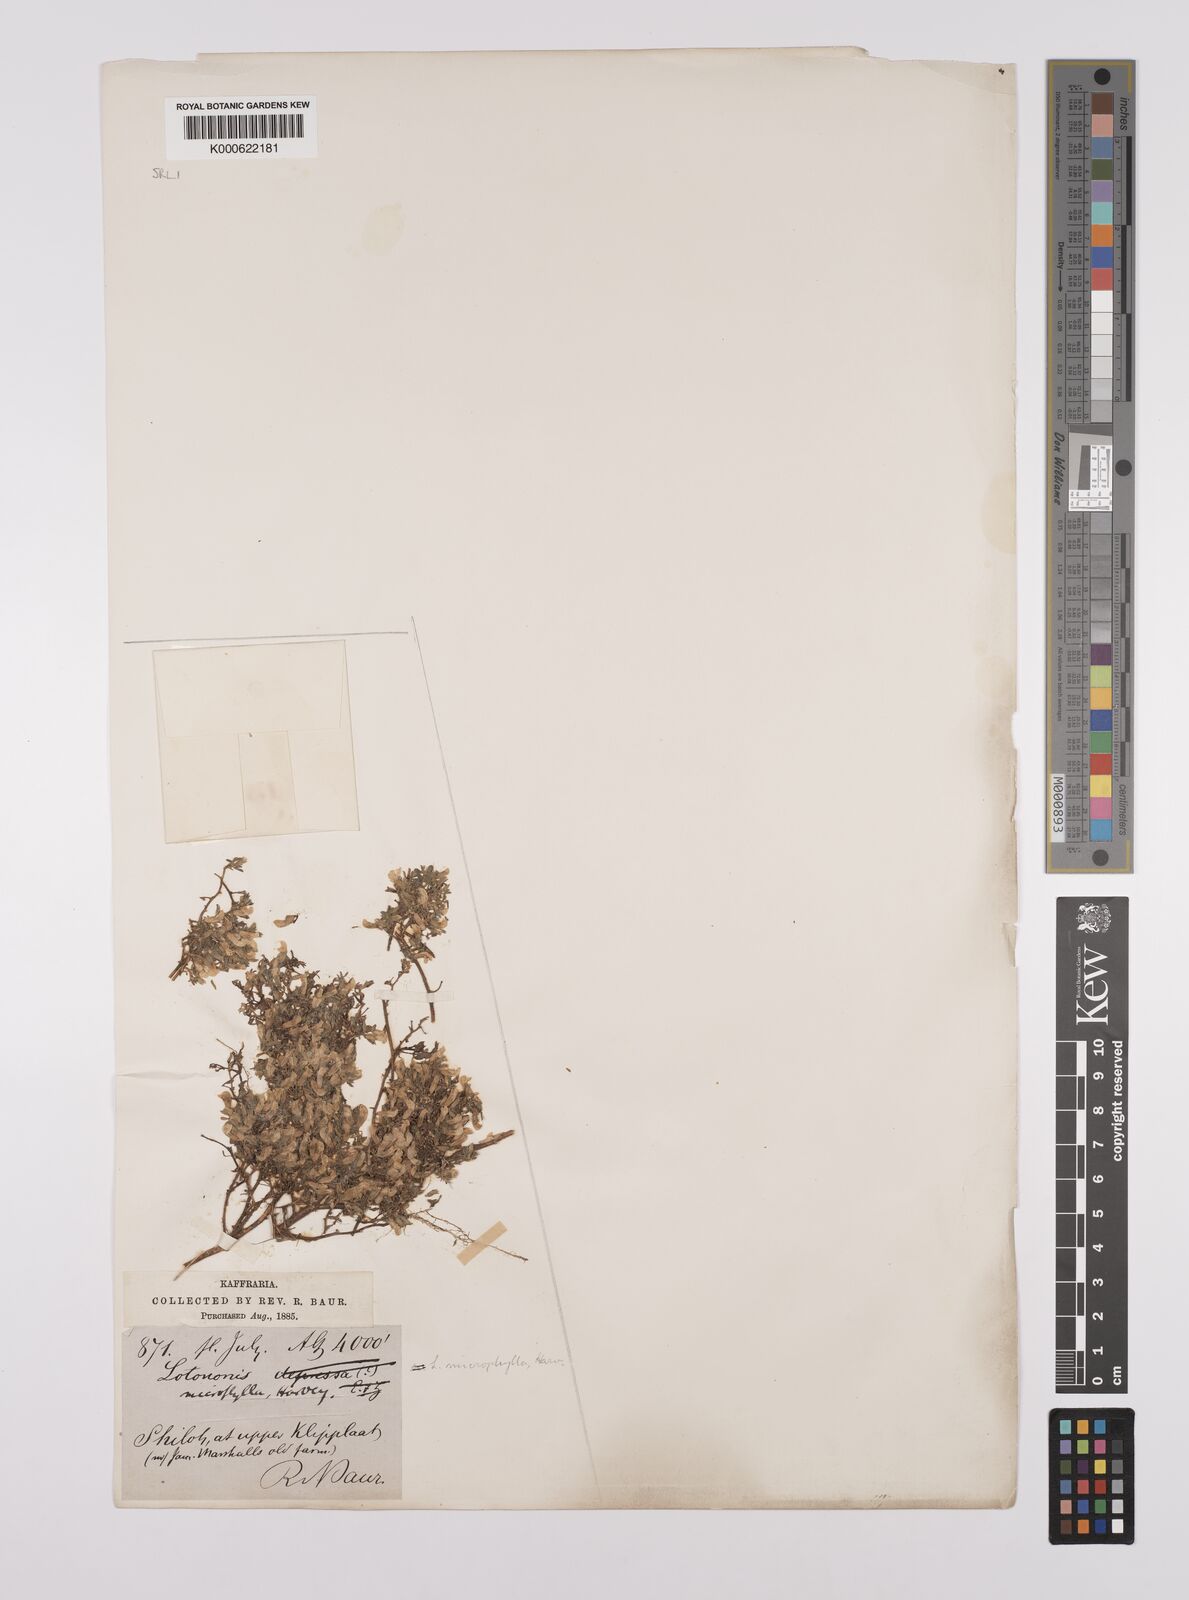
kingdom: Plantae
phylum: Tracheophyta
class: Magnoliopsida
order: Fabales
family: Fabaceae
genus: Lotononis
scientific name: Lotononis prolifera
